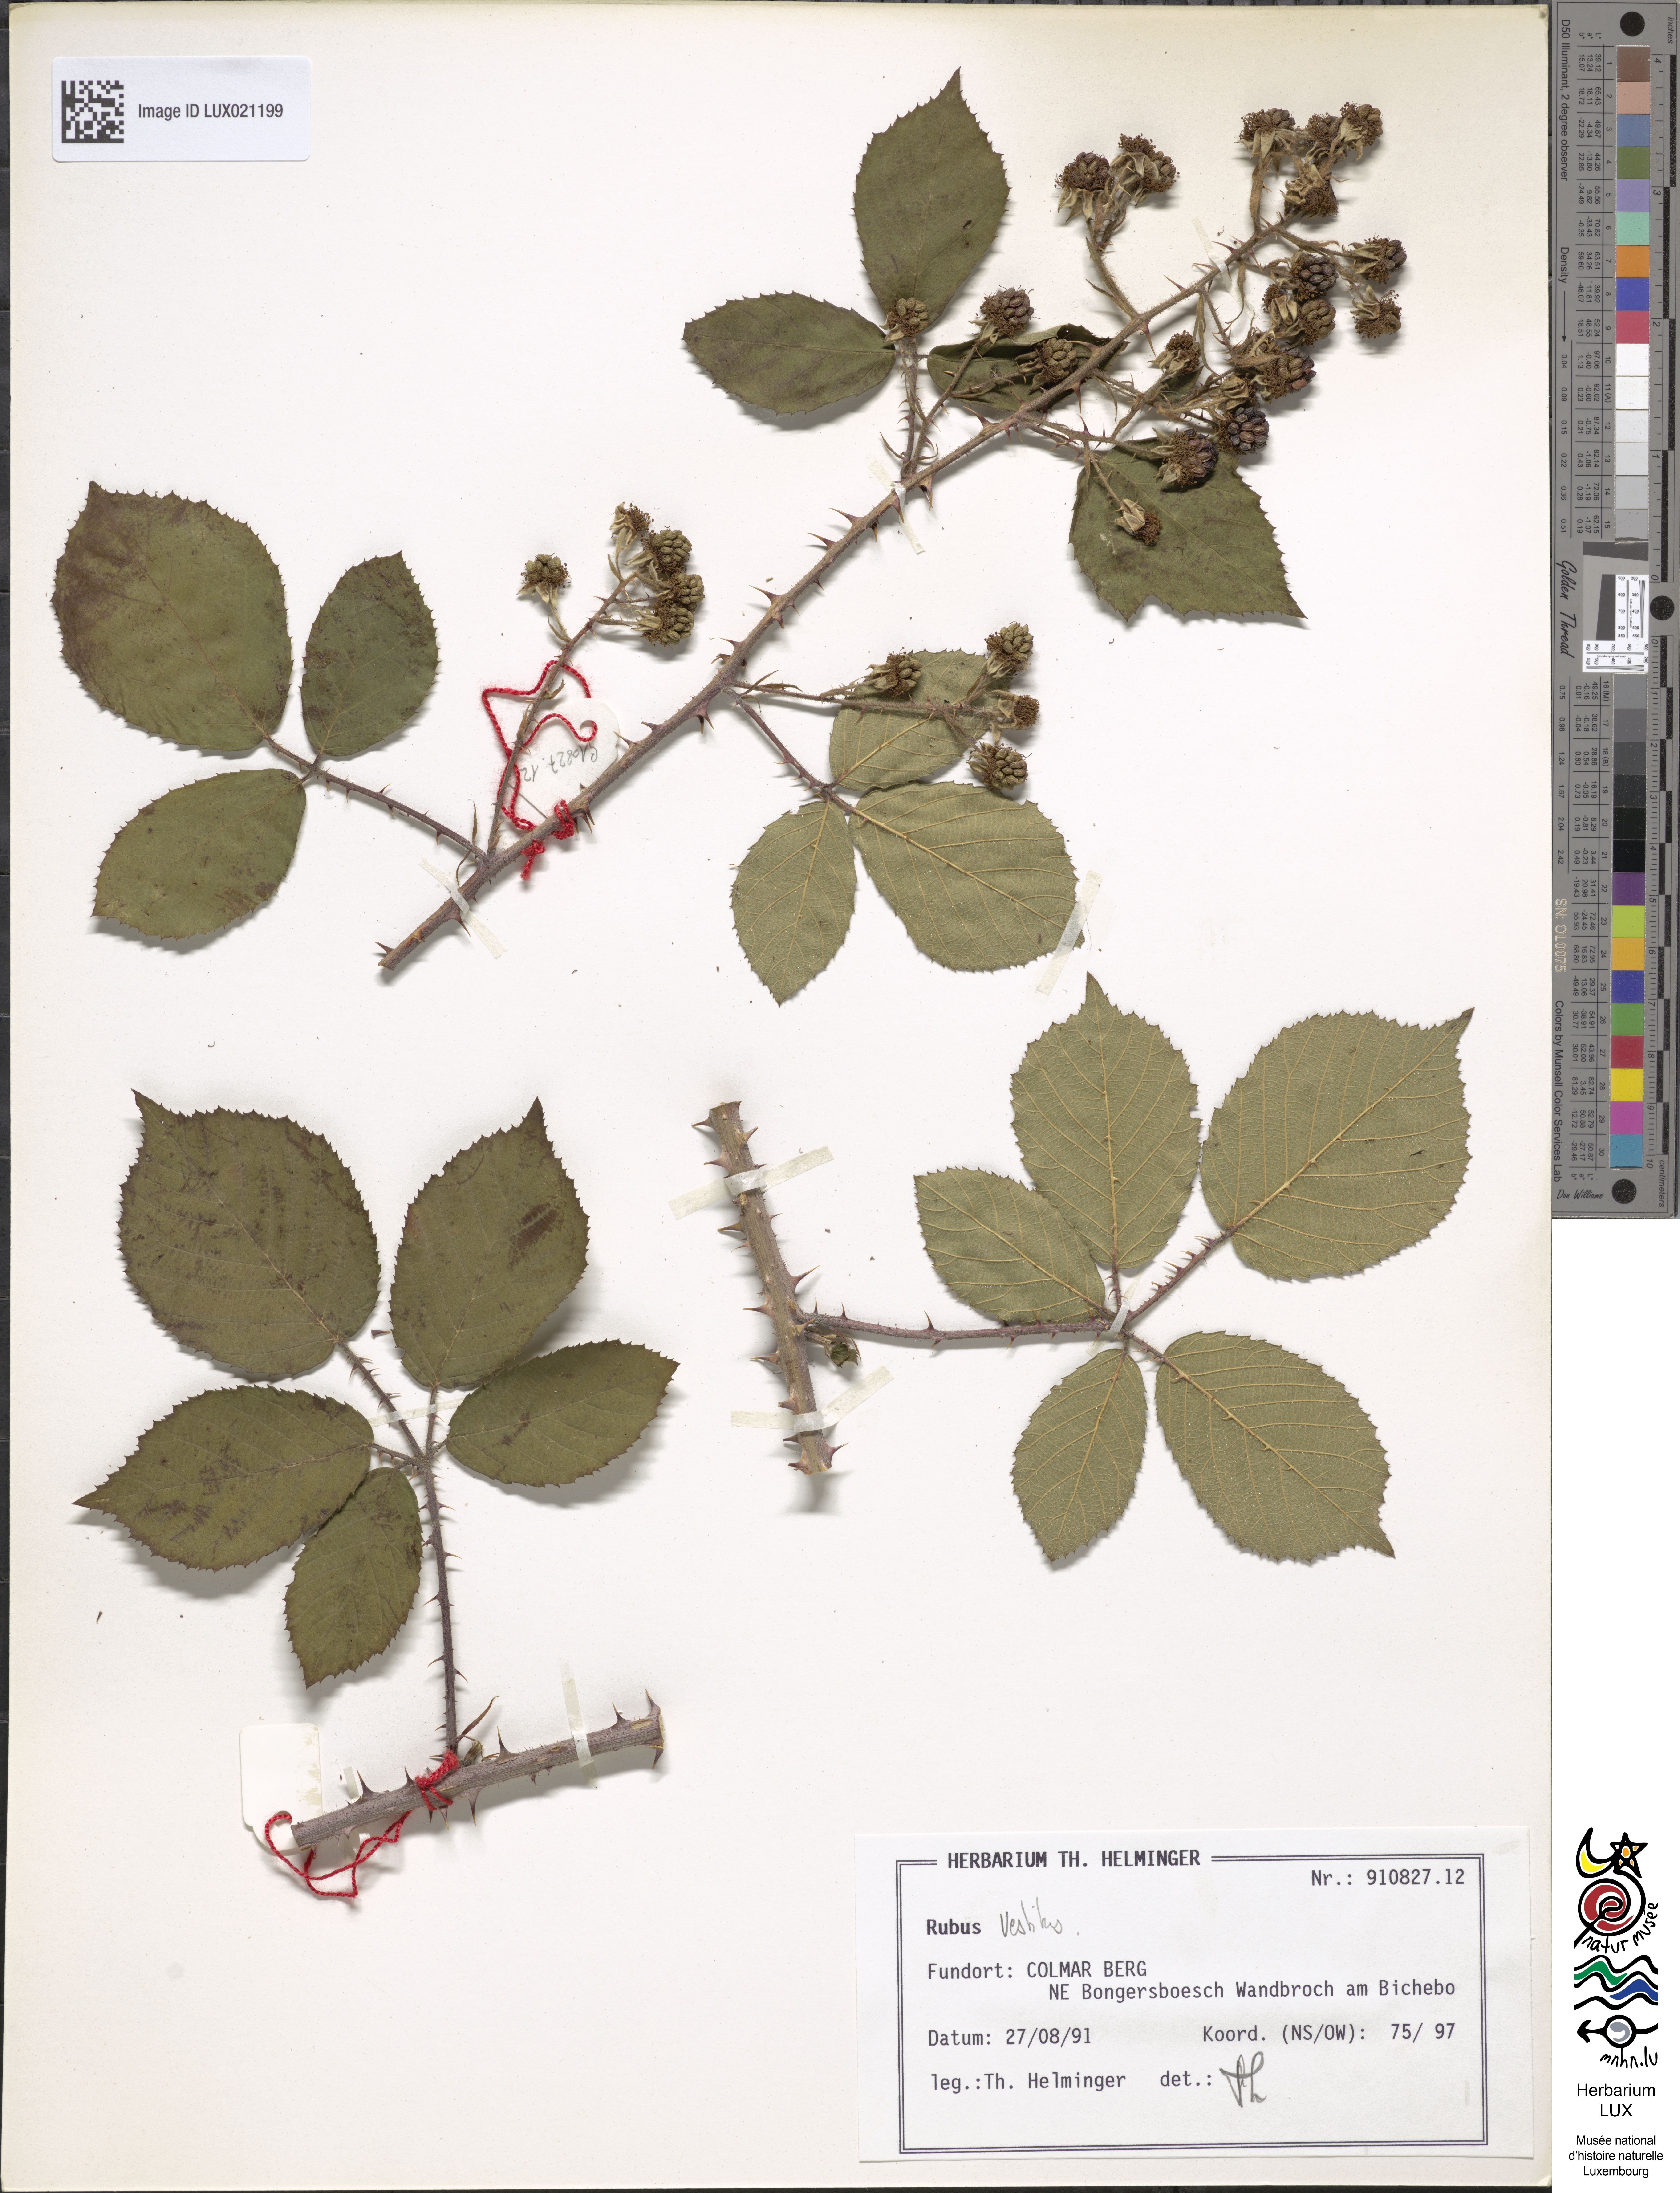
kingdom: Plantae
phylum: Tracheophyta
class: Magnoliopsida
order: Rosales
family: Rosaceae
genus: Rubus
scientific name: Rubus vestitus
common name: European blackberry
